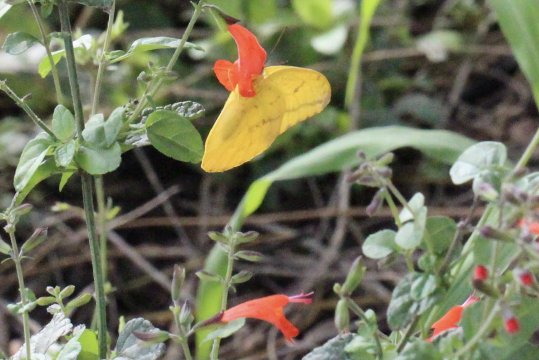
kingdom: Animalia
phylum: Arthropoda
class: Insecta
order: Lepidoptera
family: Pieridae
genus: Phoebis
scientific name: Phoebis agarithe
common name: Large Orange Sulphur
